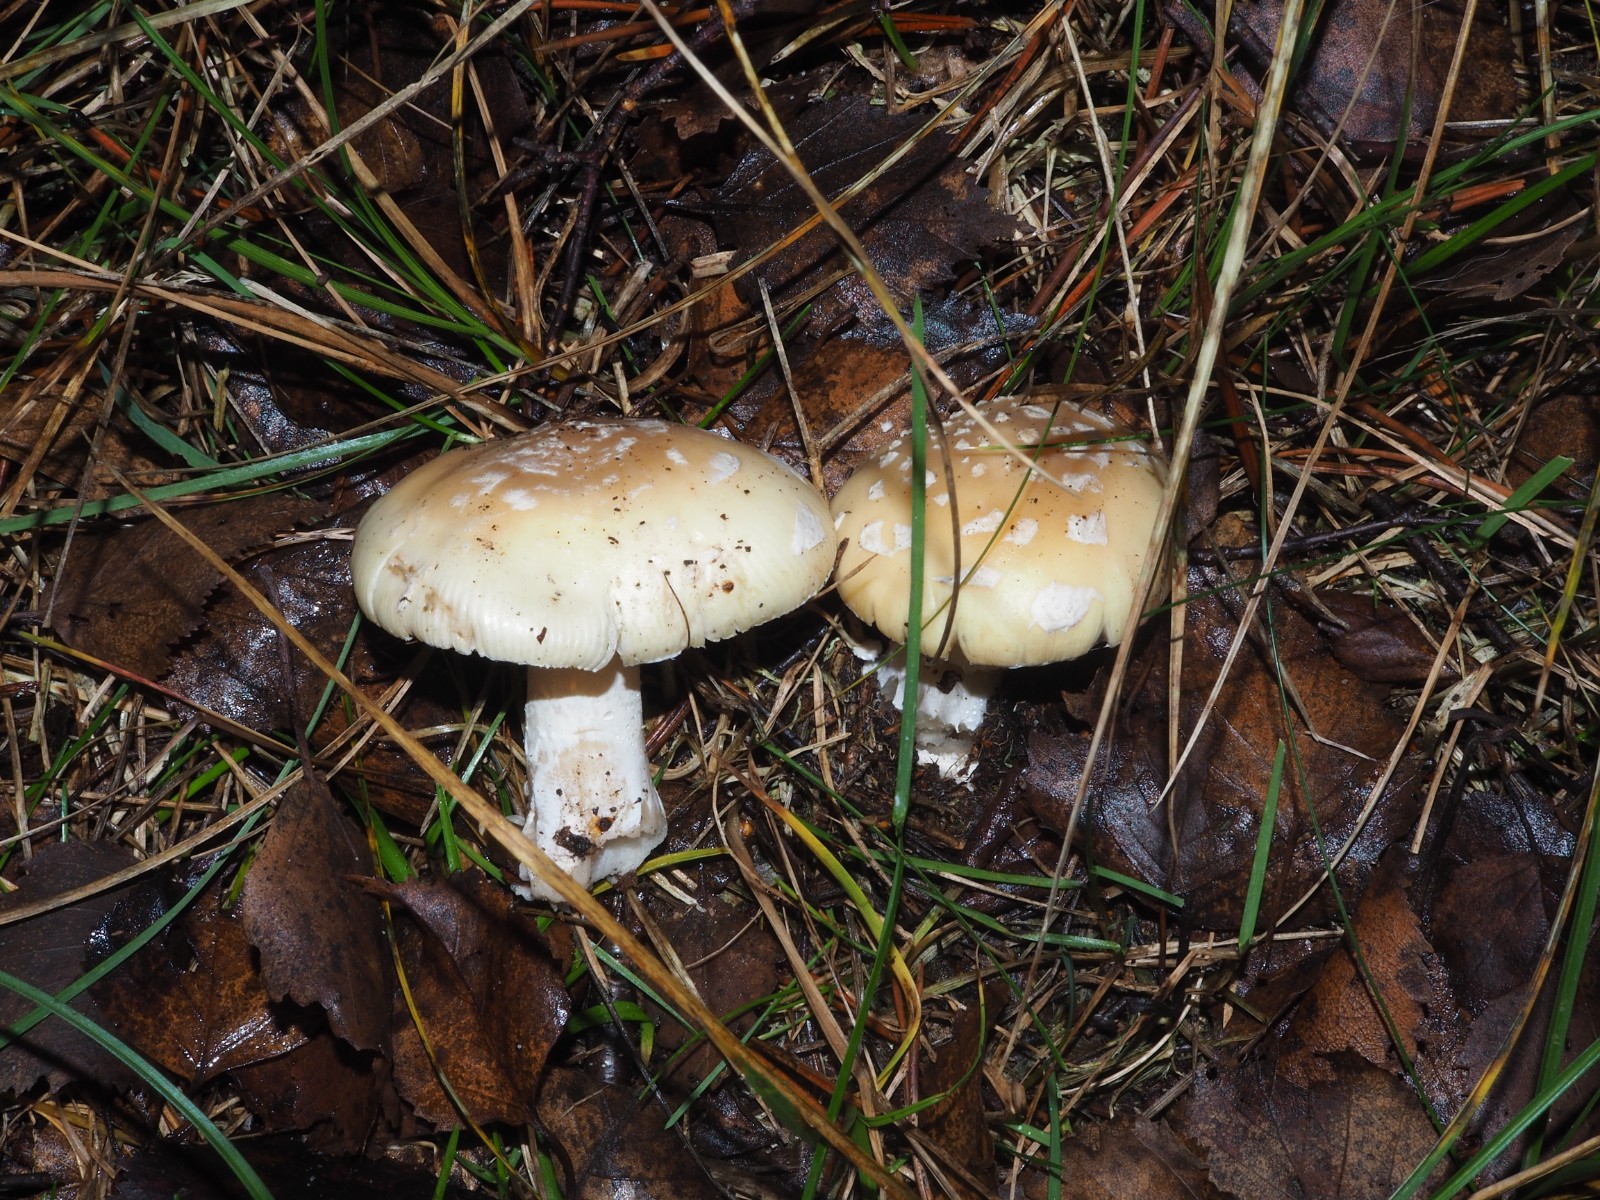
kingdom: Fungi
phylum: Basidiomycota
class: Agaricomycetes
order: Agaricales
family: Amanitaceae
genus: Amanita
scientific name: Amanita gemmata
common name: okkergul fluesvamp
